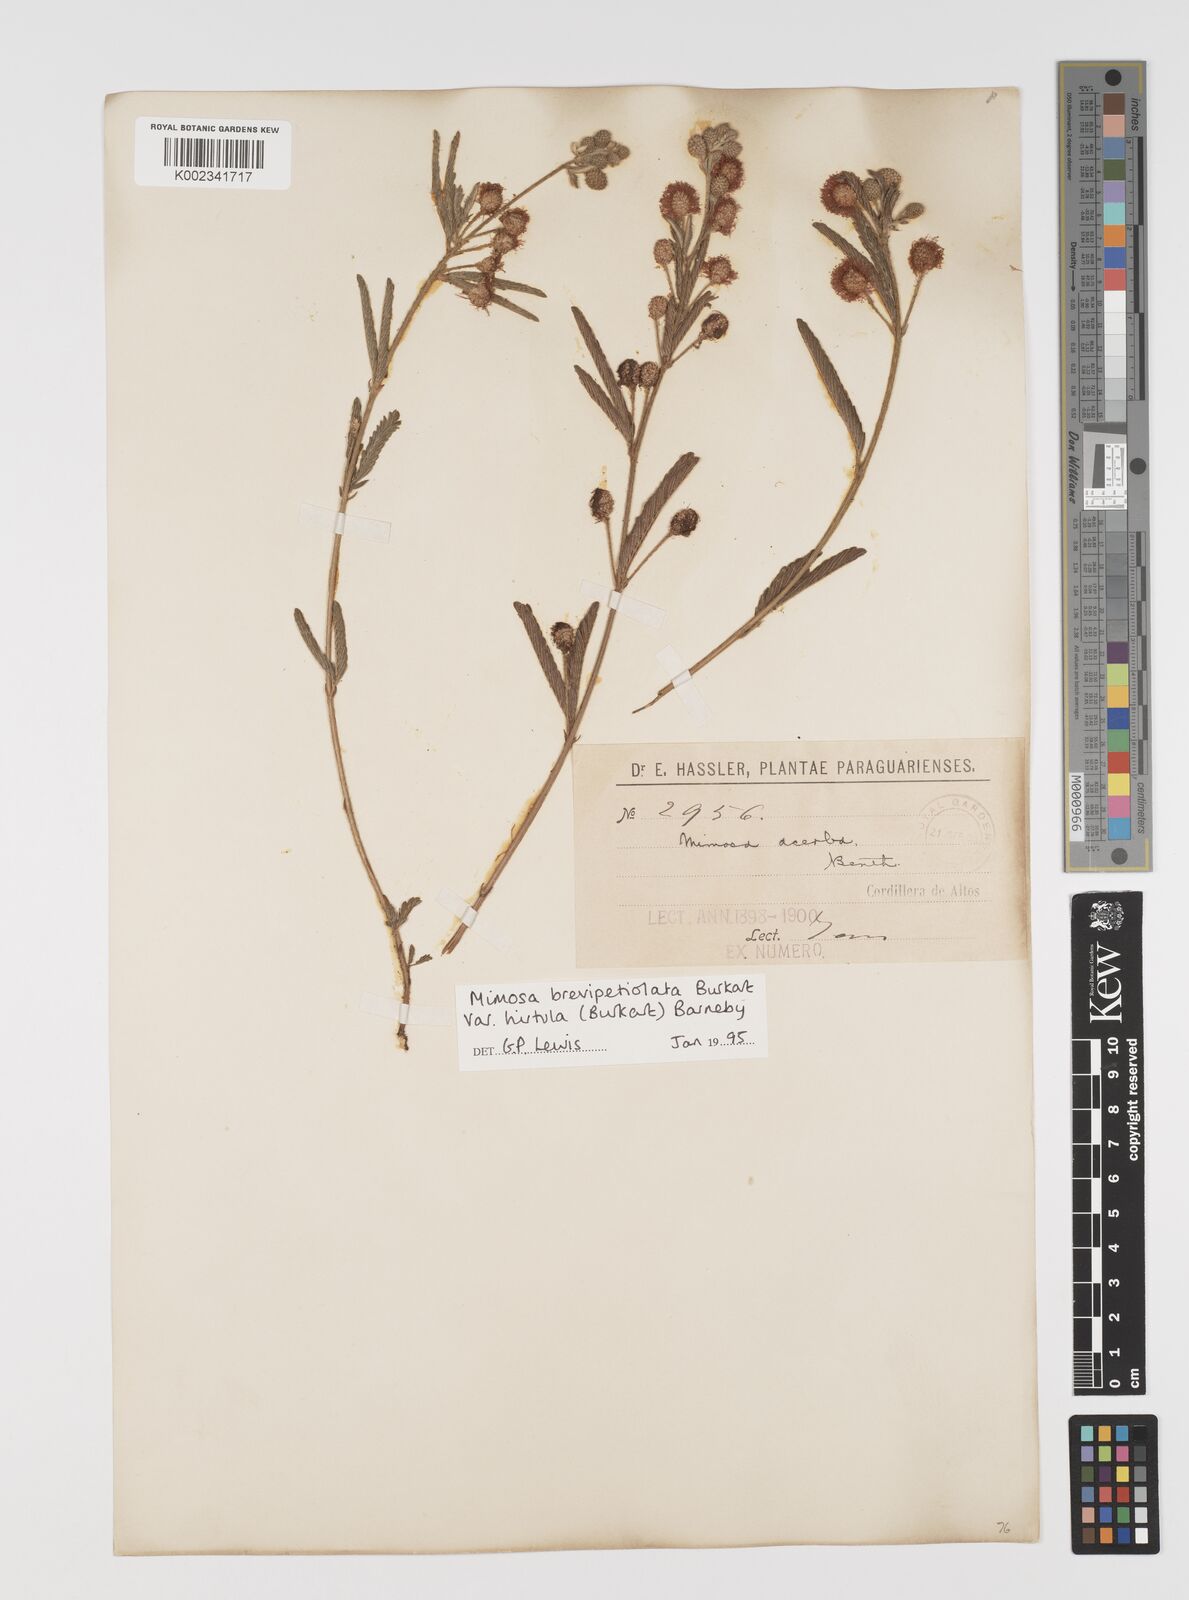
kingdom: Plantae
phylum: Tracheophyta
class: Magnoliopsida
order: Fabales
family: Fabaceae
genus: Mimosa
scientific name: Mimosa brevipetiolata
